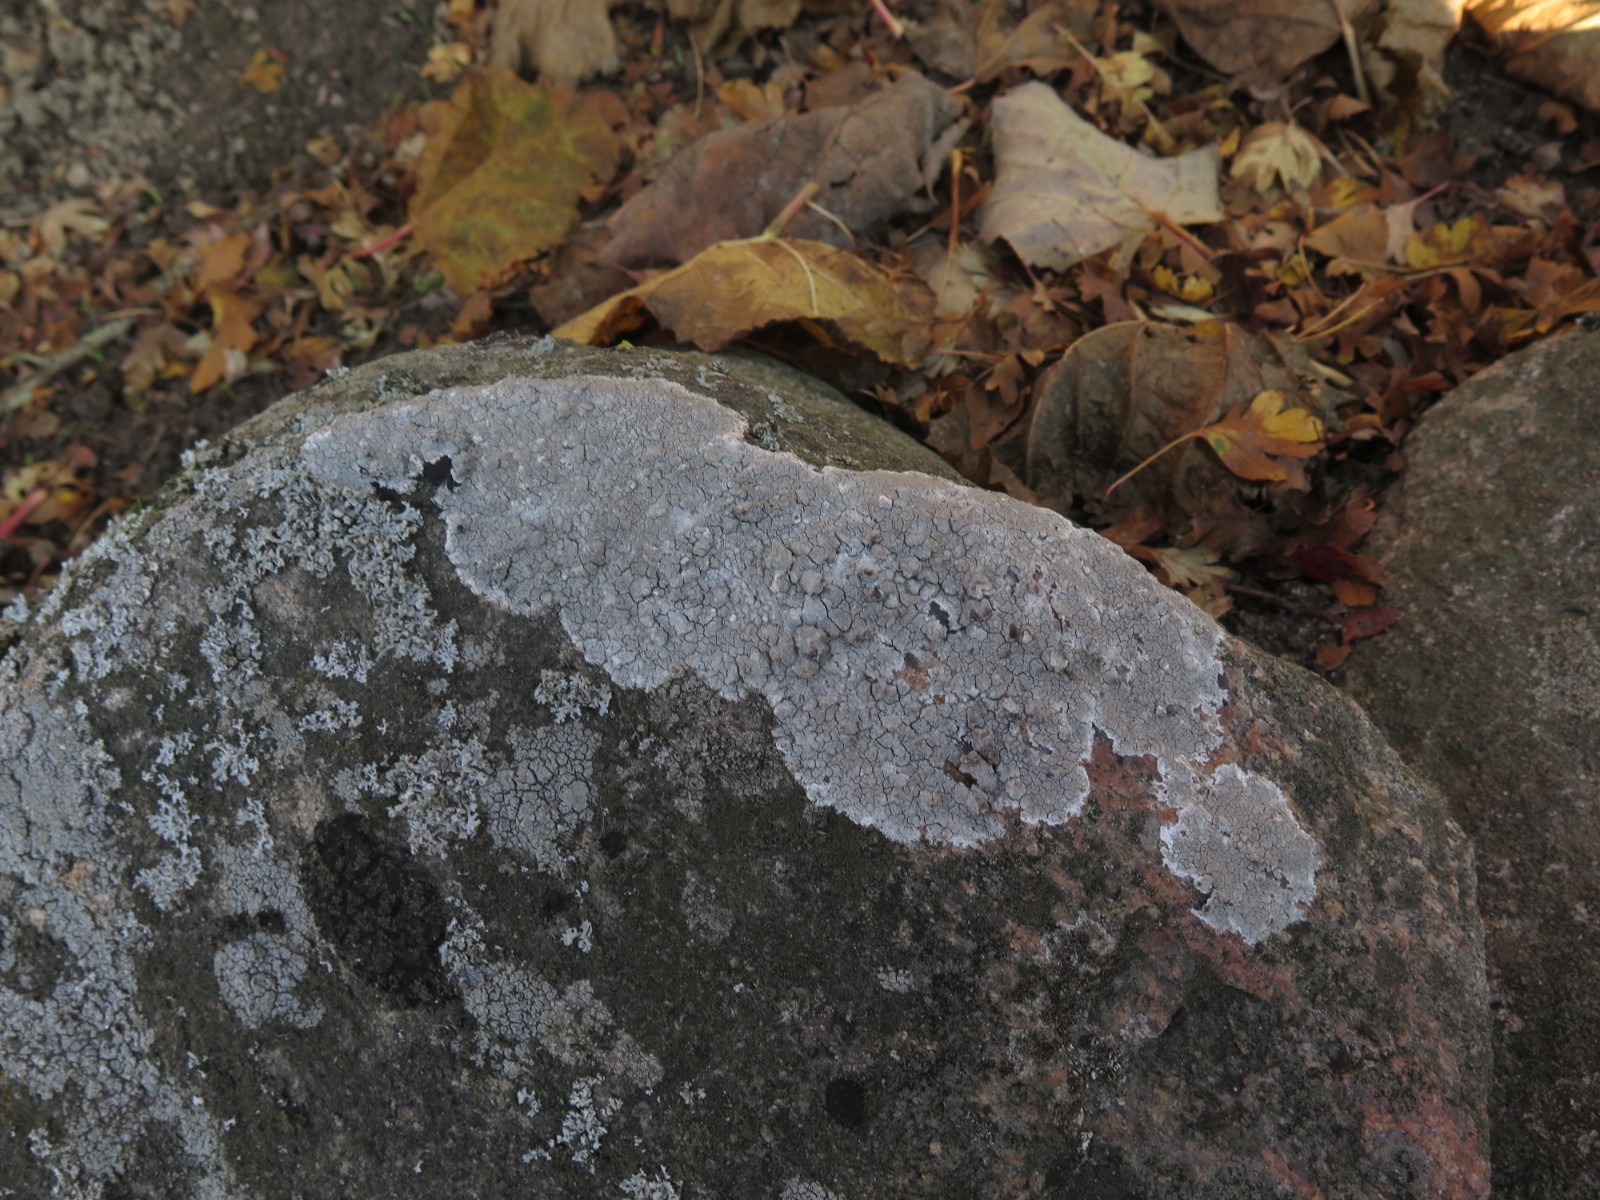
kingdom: Fungi
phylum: Ascomycota
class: Lecanoromycetes
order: Lecanorales
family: Lecanoraceae
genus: Glaucomaria
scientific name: Glaucomaria rupicola
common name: stengærde-kantskivelav
